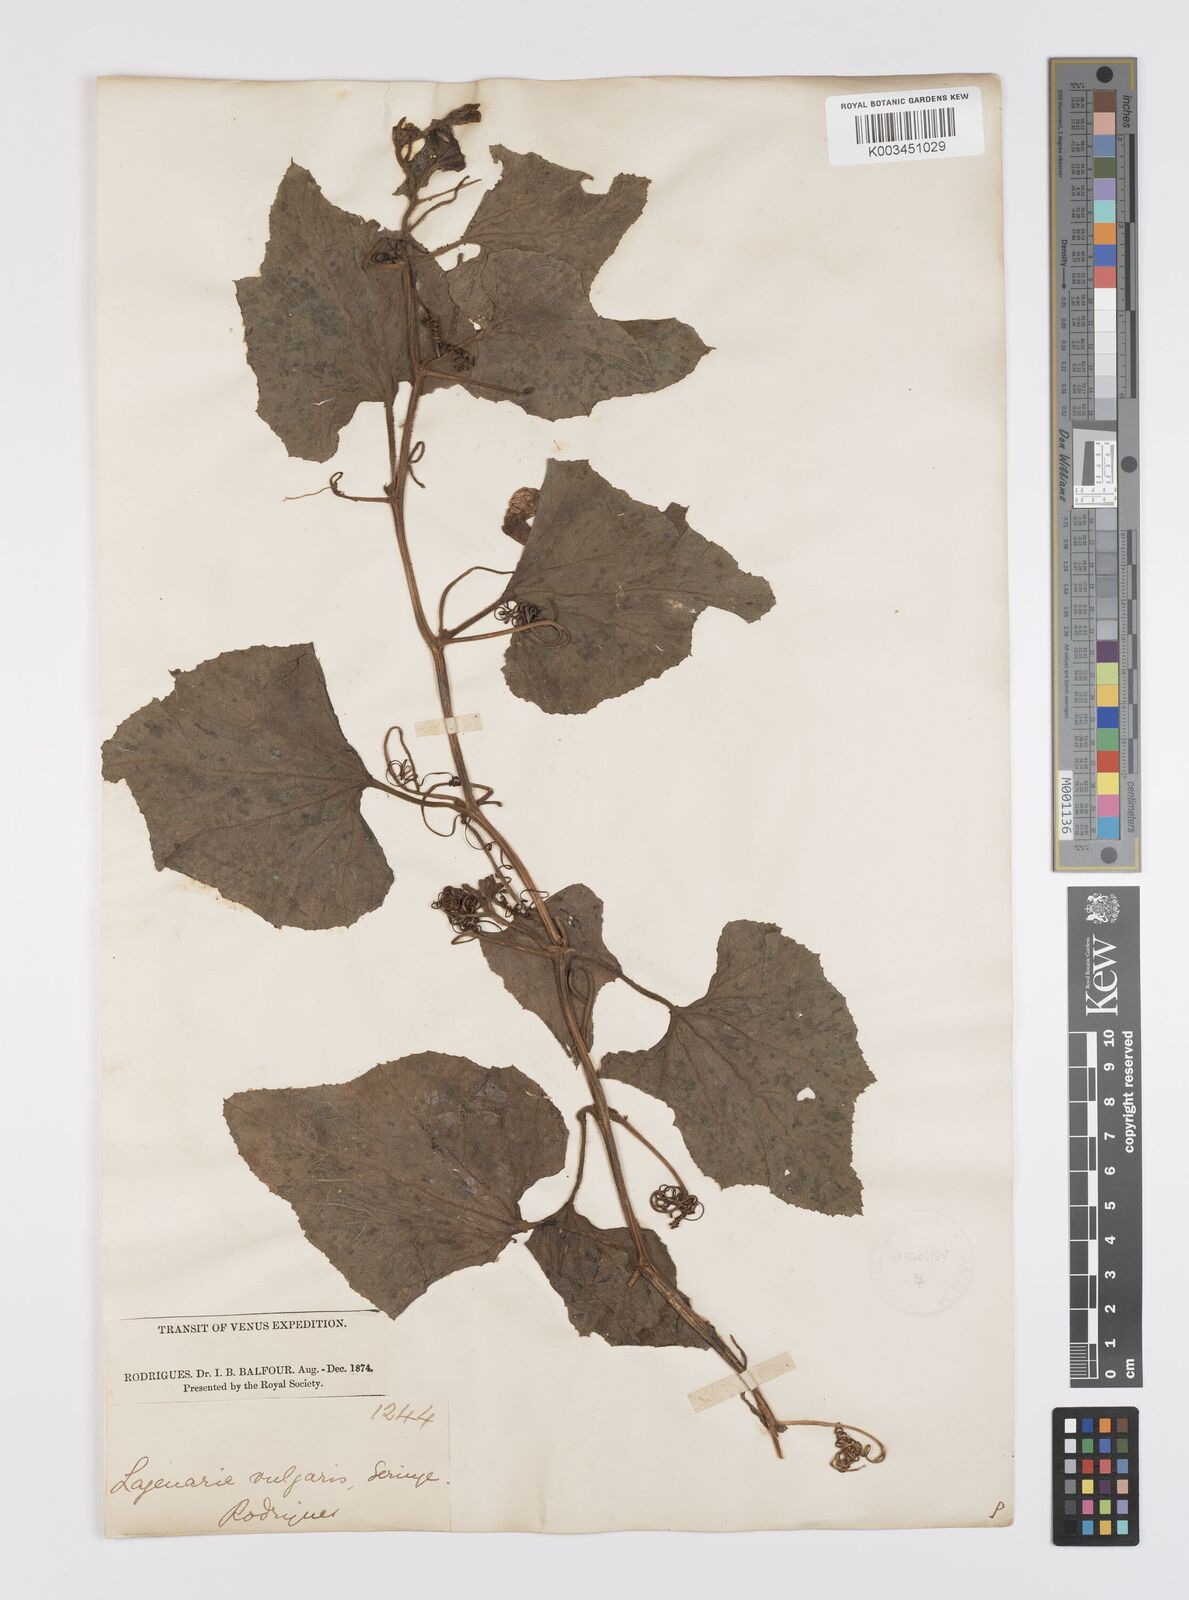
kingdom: Plantae
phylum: Tracheophyta
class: Magnoliopsida
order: Cucurbitales
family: Cucurbitaceae
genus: Lagenaria
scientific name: Lagenaria siceraria
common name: Bottle gourd
